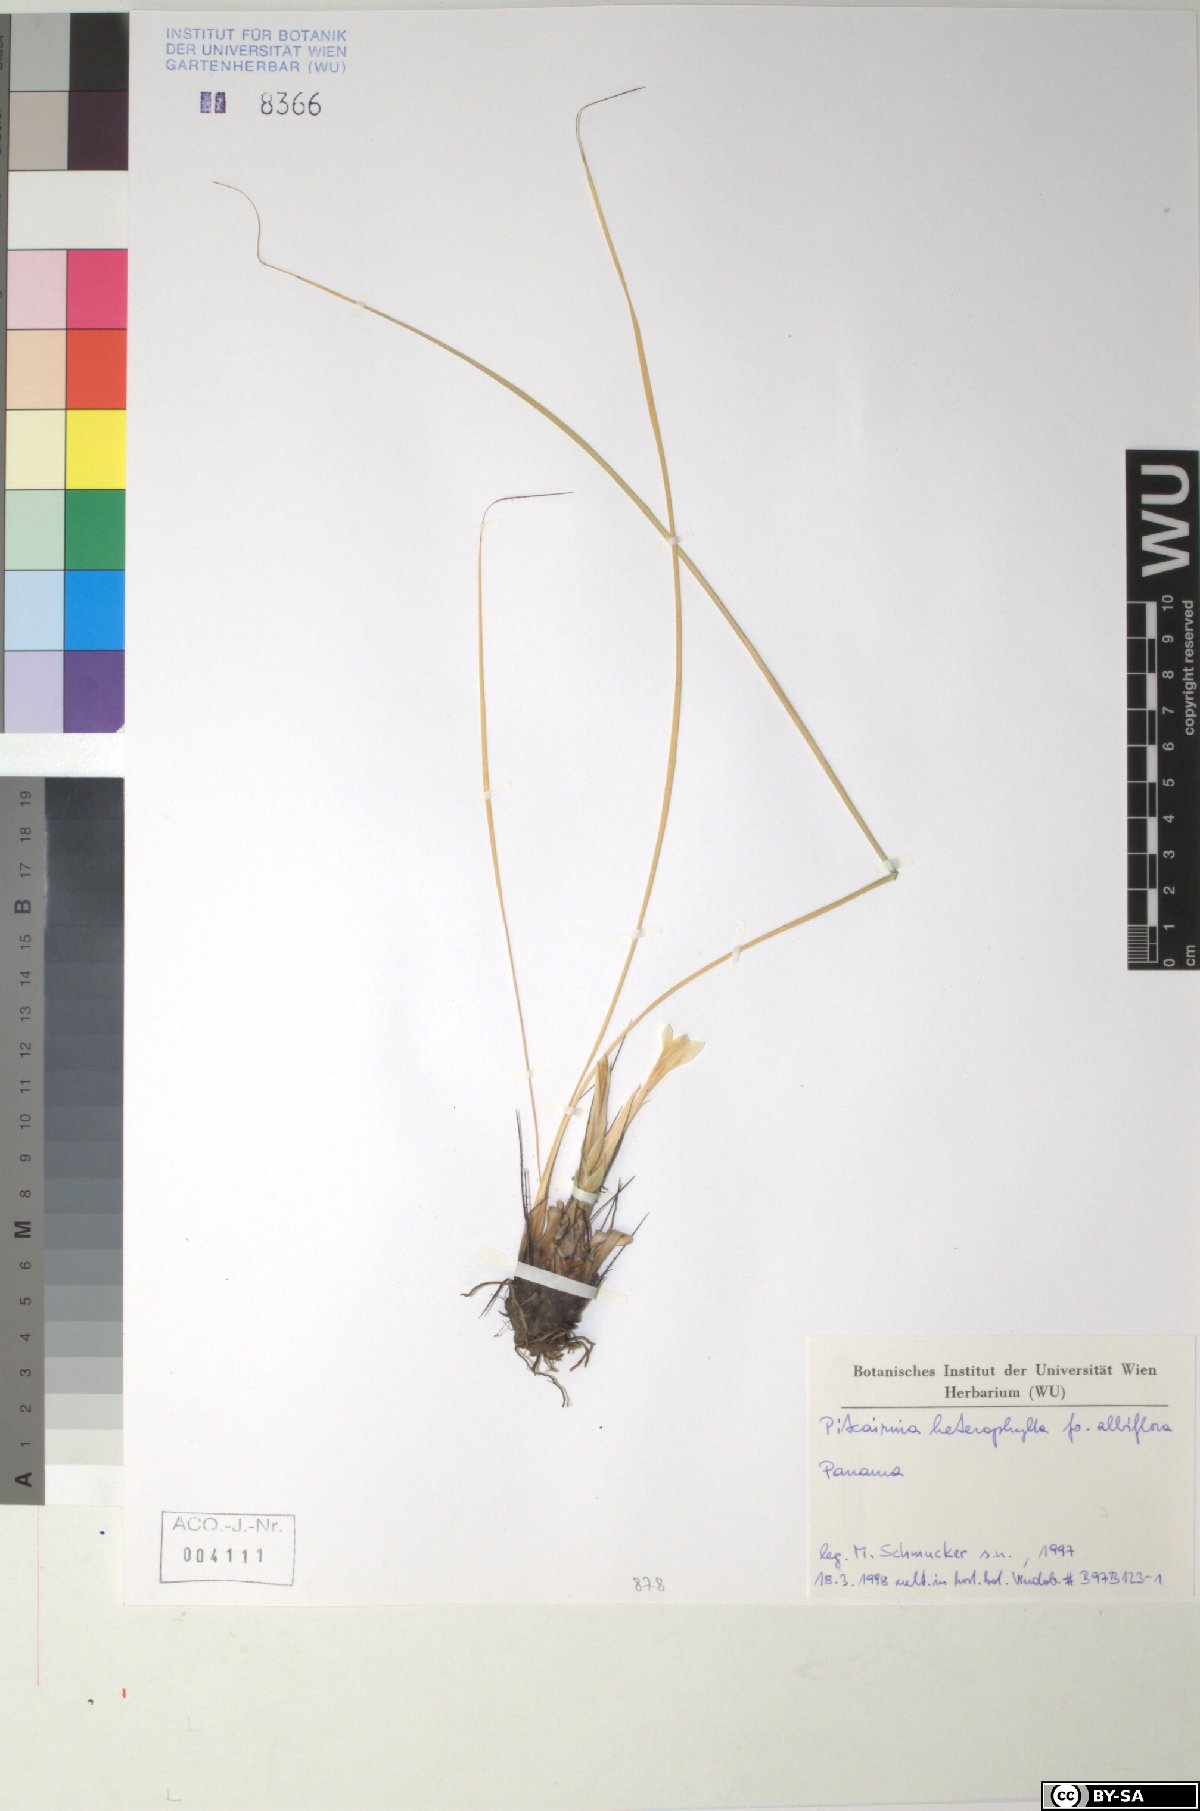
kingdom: Plantae
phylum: Tracheophyta
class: Liliopsida
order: Poales
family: Bromeliaceae
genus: Pitcairnia
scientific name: Pitcairnia heterophylla
